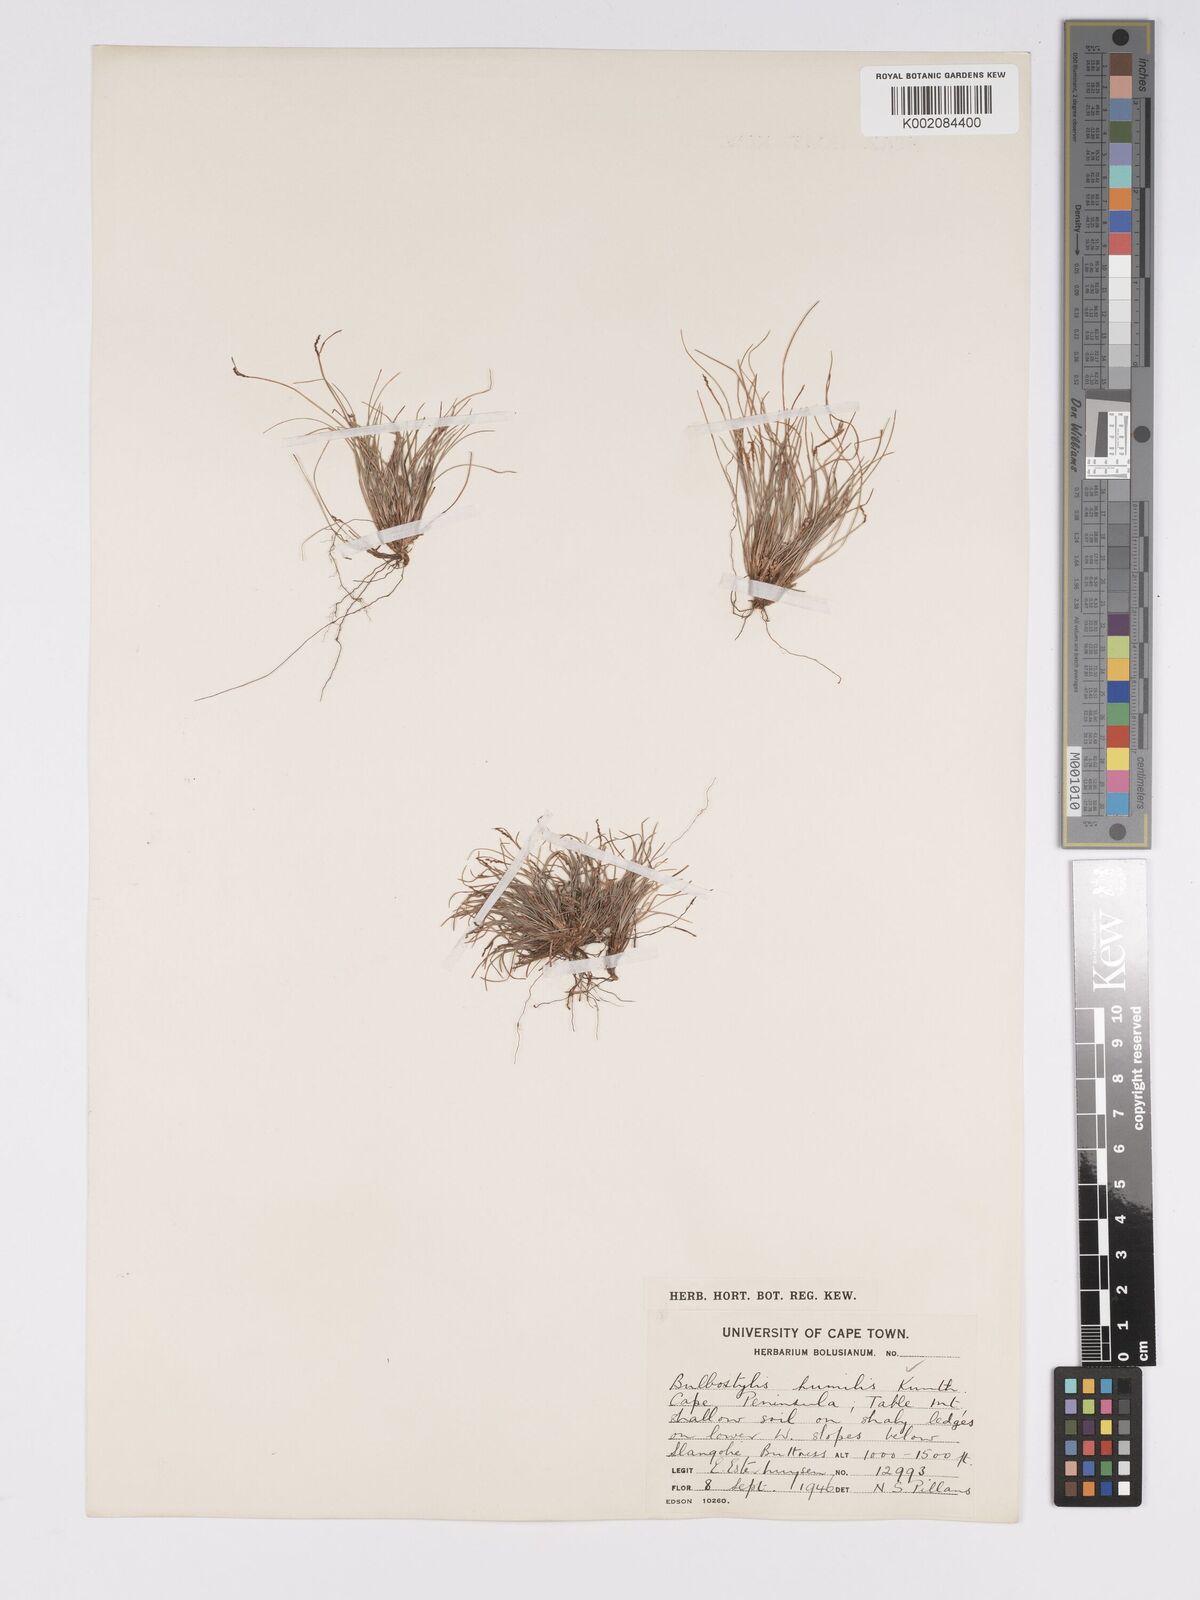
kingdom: Plantae
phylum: Tracheophyta
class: Liliopsida
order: Poales
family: Cyperaceae
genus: Bulbostylis
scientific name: Bulbostylis humilis
